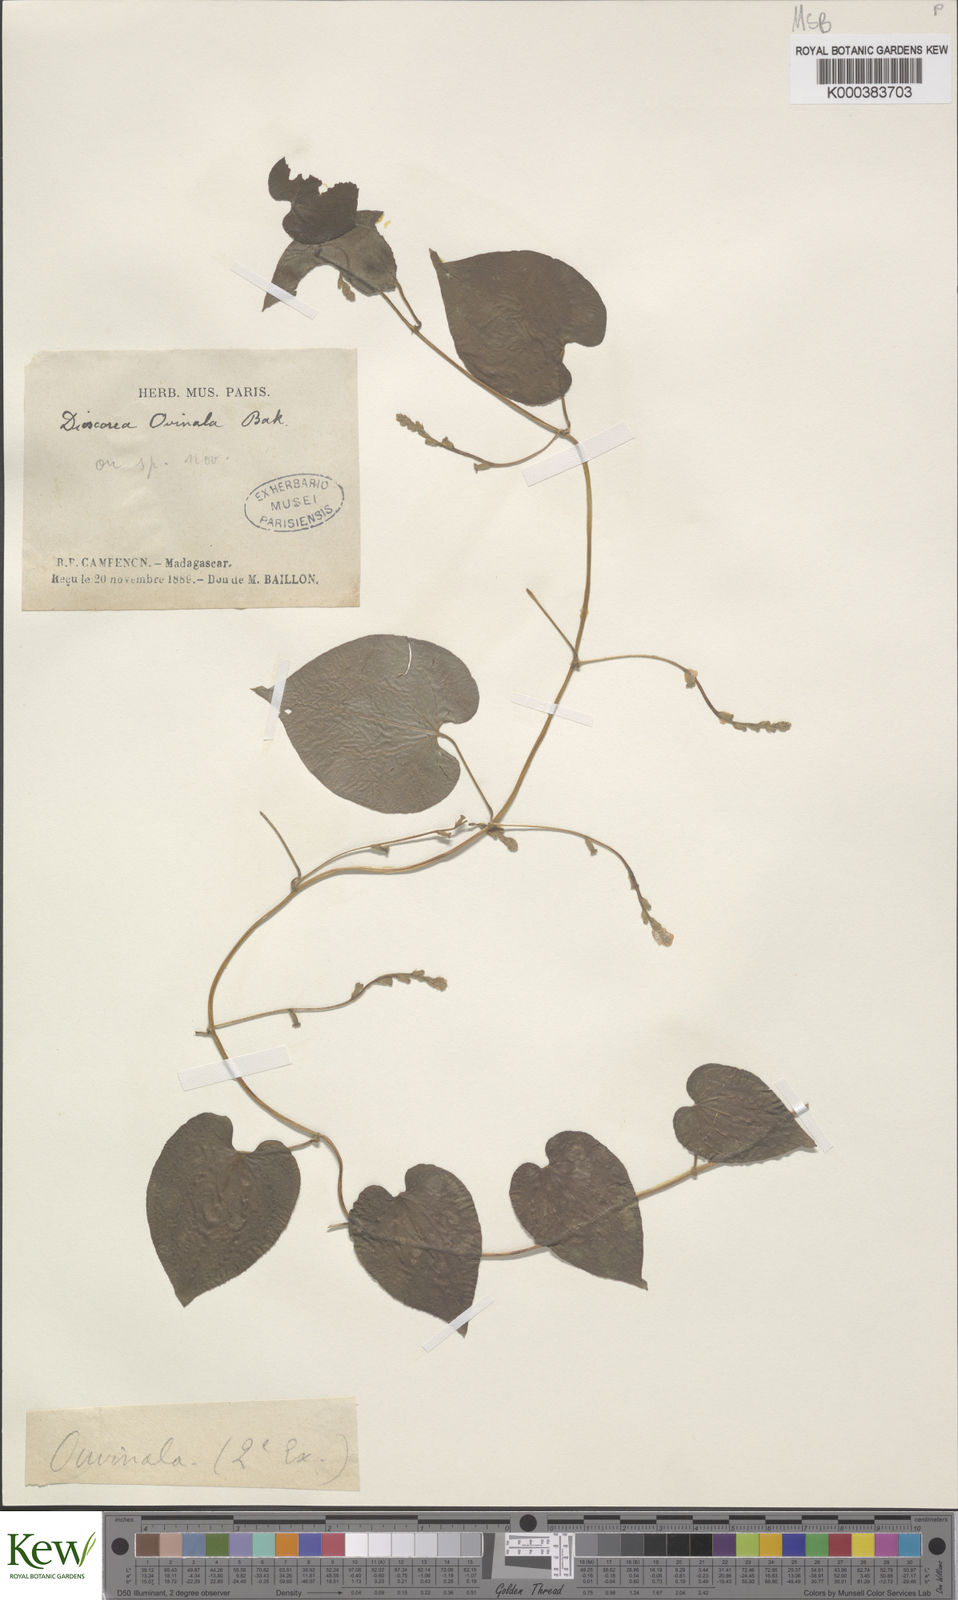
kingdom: Plantae
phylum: Tracheophyta
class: Liliopsida
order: Dioscoreales
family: Dioscoreaceae
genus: Dioscorea
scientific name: Dioscorea ovinala
